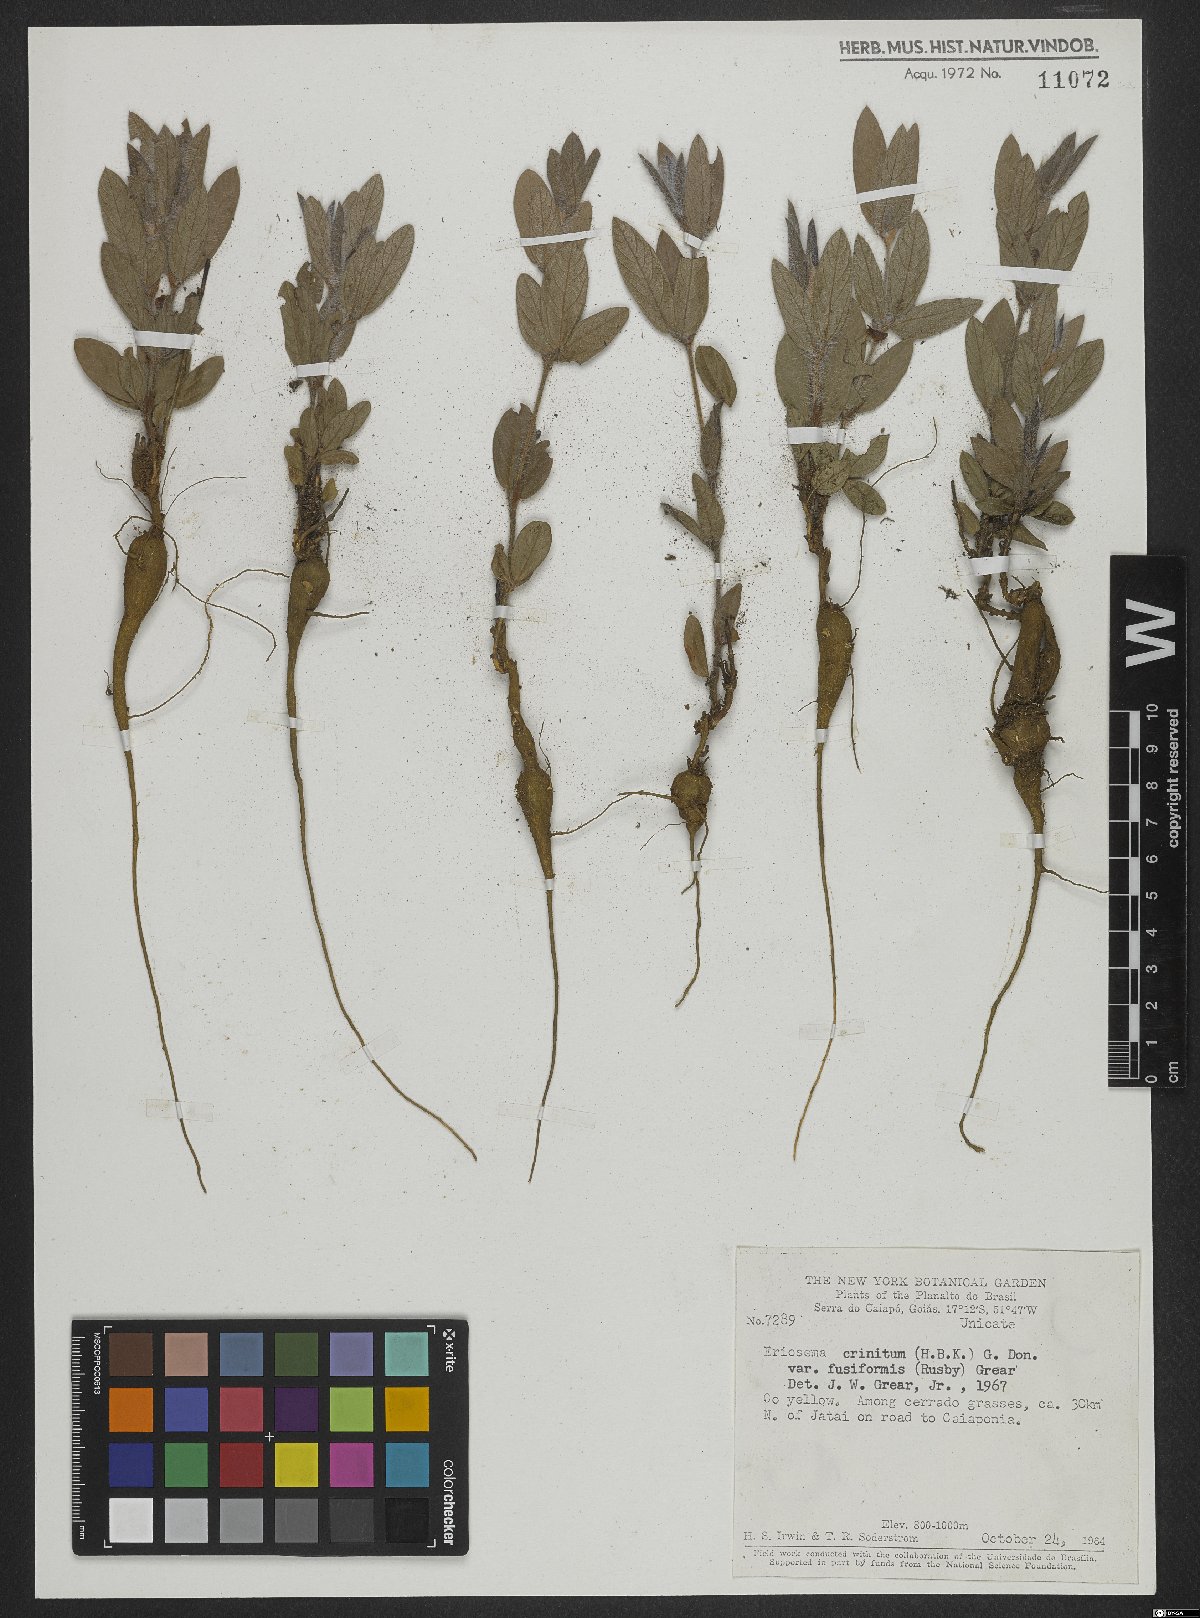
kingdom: Plantae
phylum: Tracheophyta
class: Magnoliopsida
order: Fabales
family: Fabaceae
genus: Eriosema
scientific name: Eriosema crinitum
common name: Sand pea
